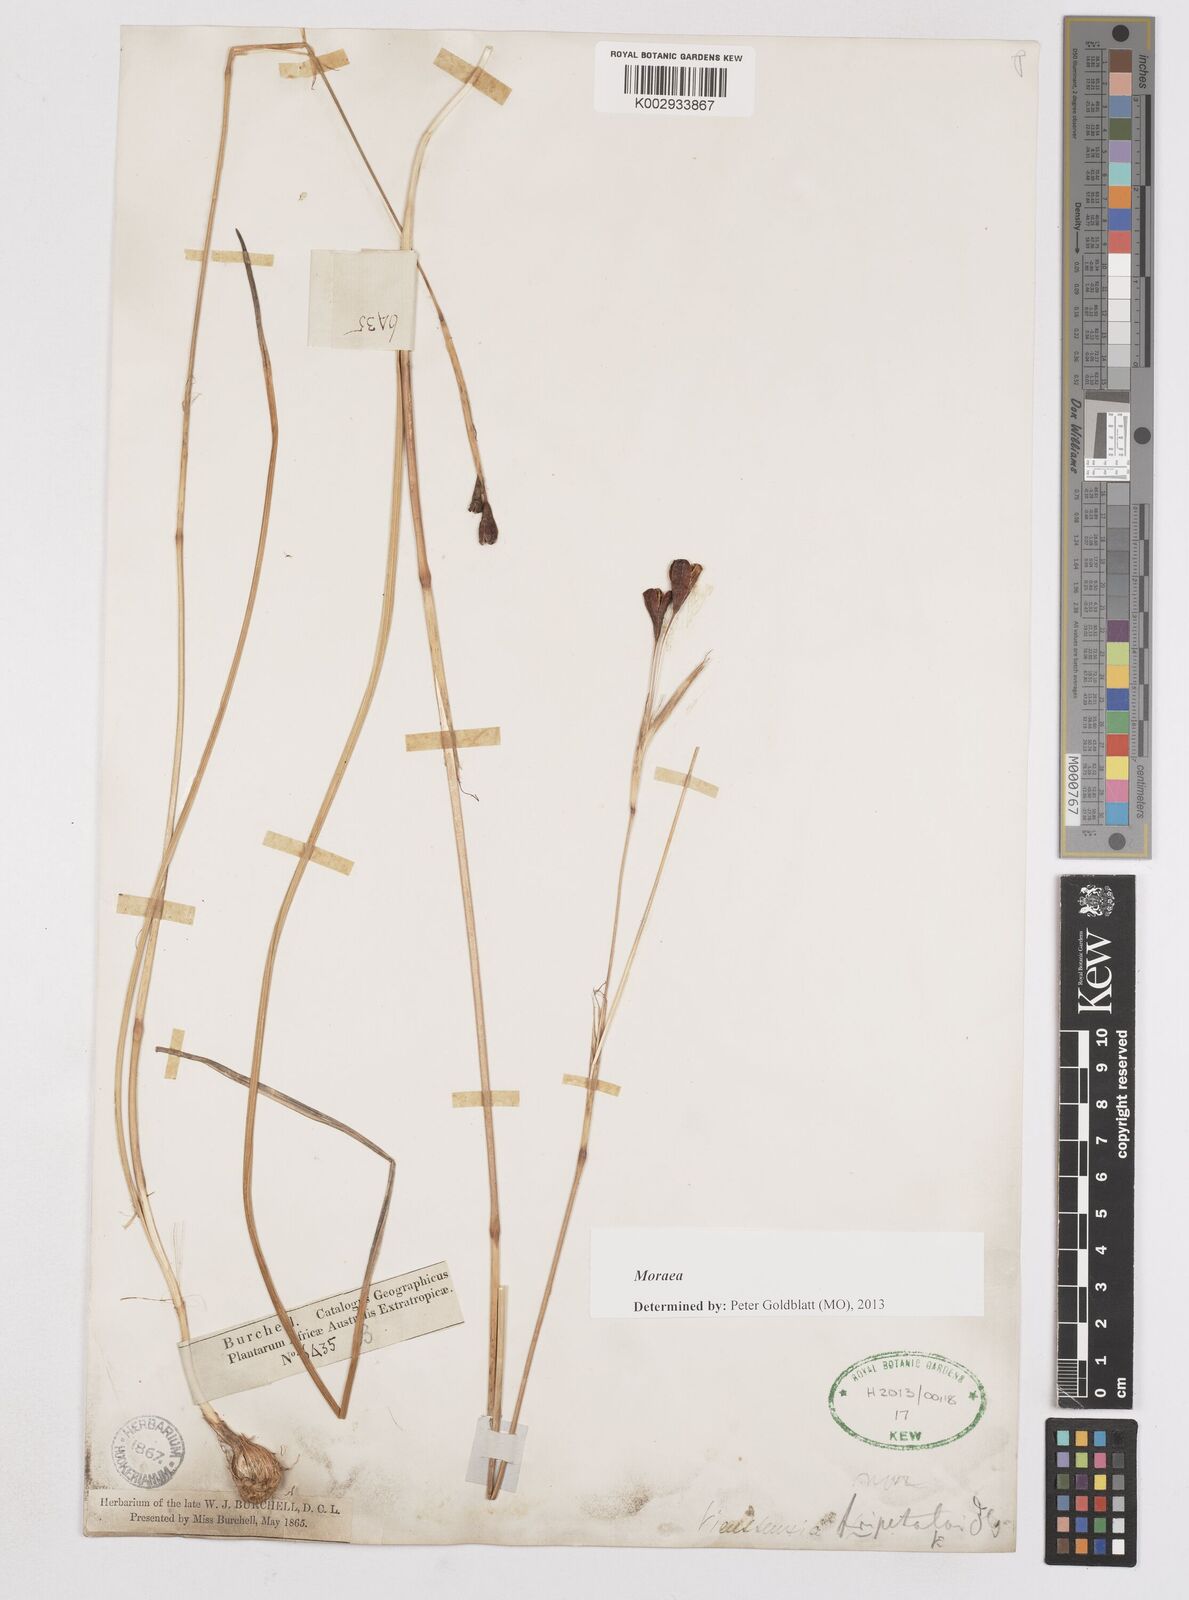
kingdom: Plantae
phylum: Tracheophyta
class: Liliopsida
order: Asparagales
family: Iridaceae
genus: Moraea
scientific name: Moraea
